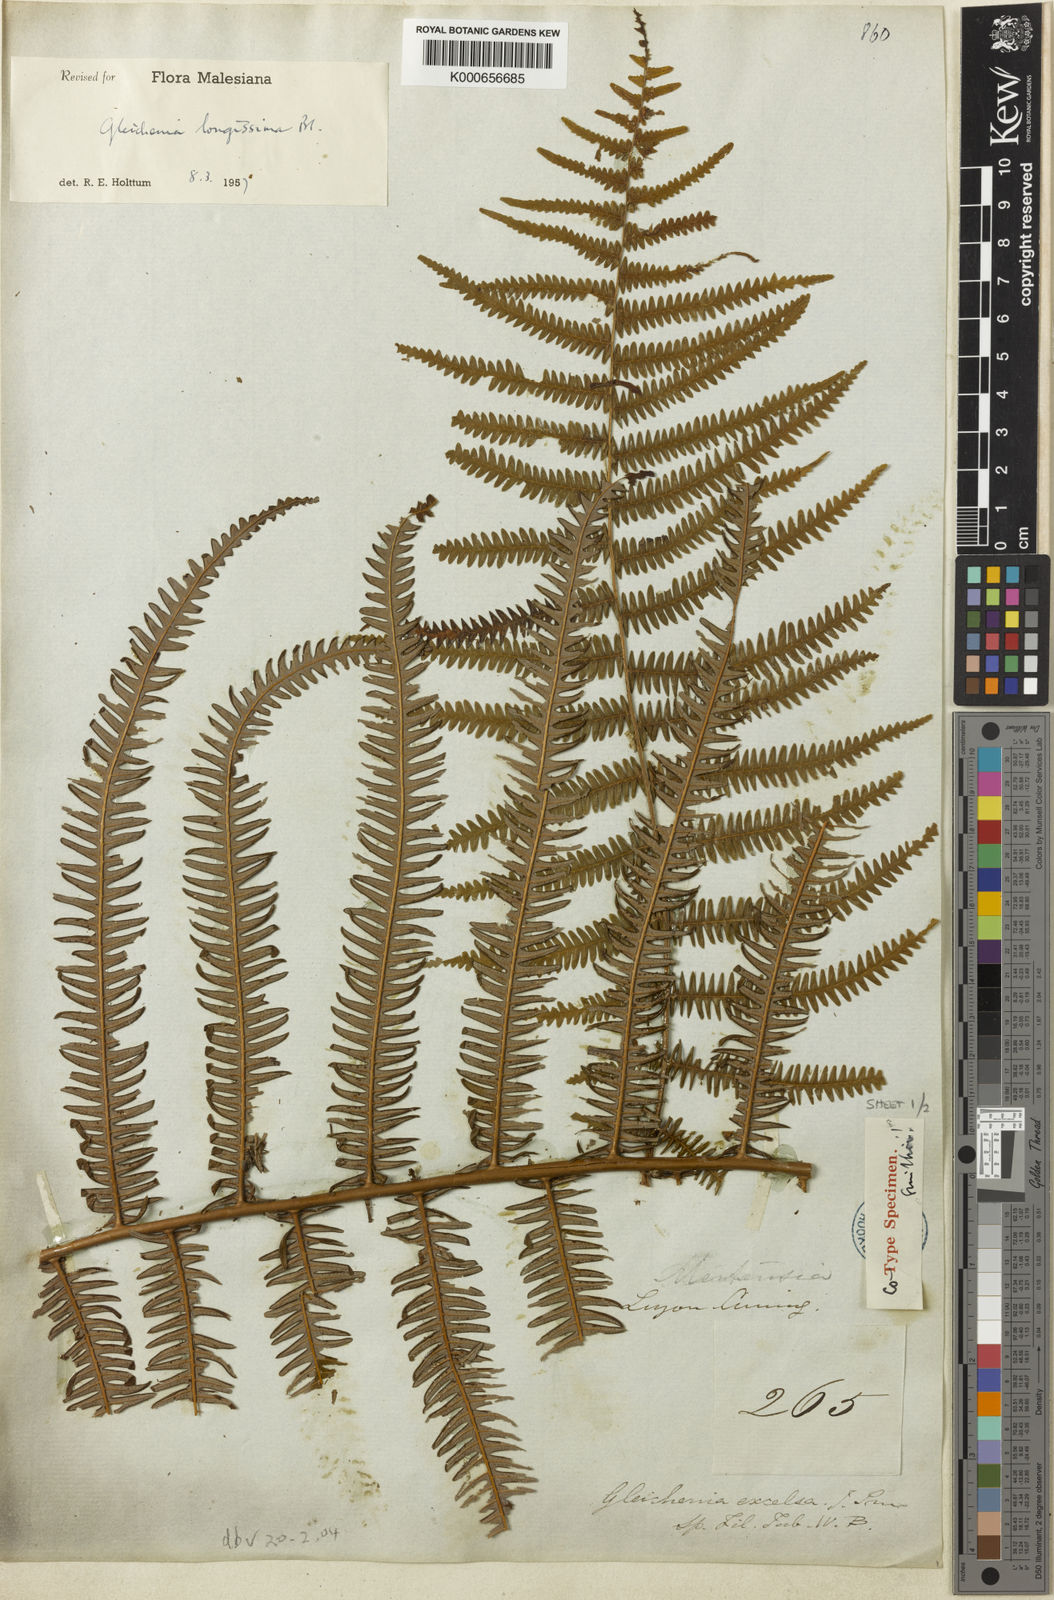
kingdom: Plantae
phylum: Tracheophyta
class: Polypodiopsida
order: Gleicheniales
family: Gleicheniaceae
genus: Diplopterygium
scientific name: Diplopterygium longissimum
